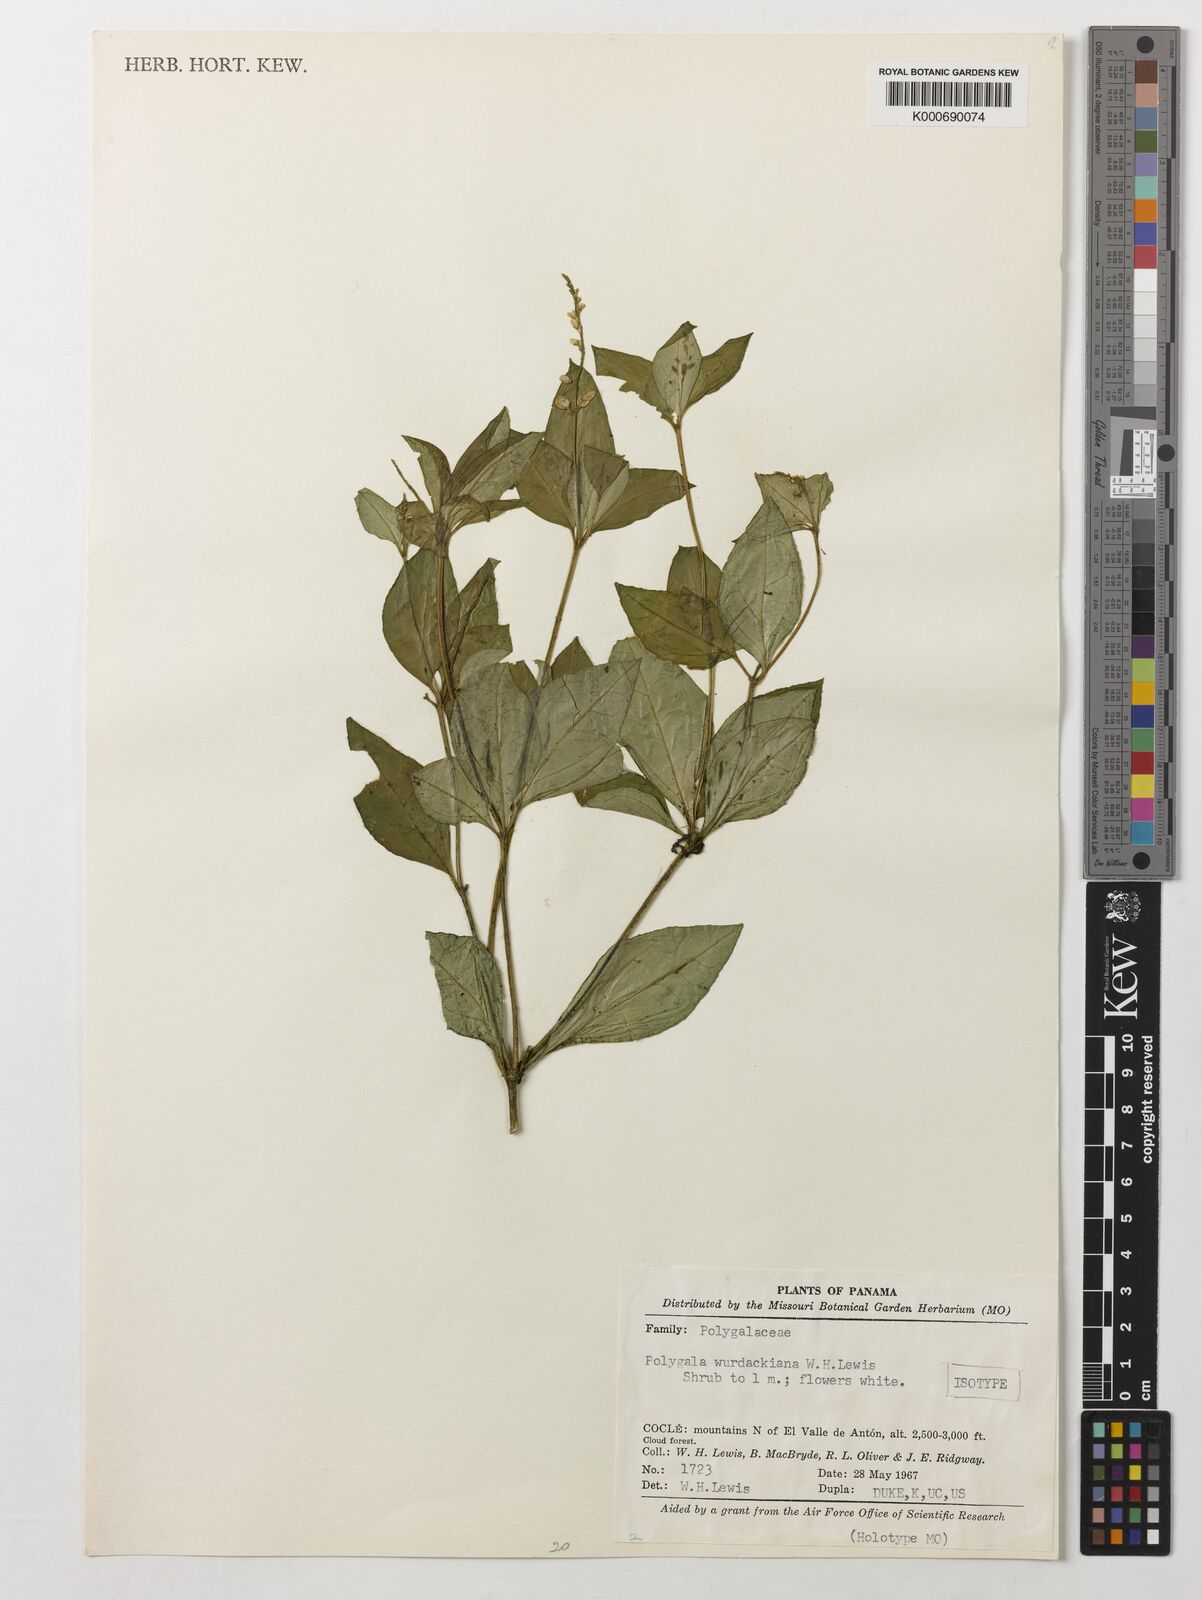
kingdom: Plantae
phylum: Tracheophyta
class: Magnoliopsida
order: Fabales
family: Polygalaceae
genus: Polygala
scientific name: Polygala wurdackiana
